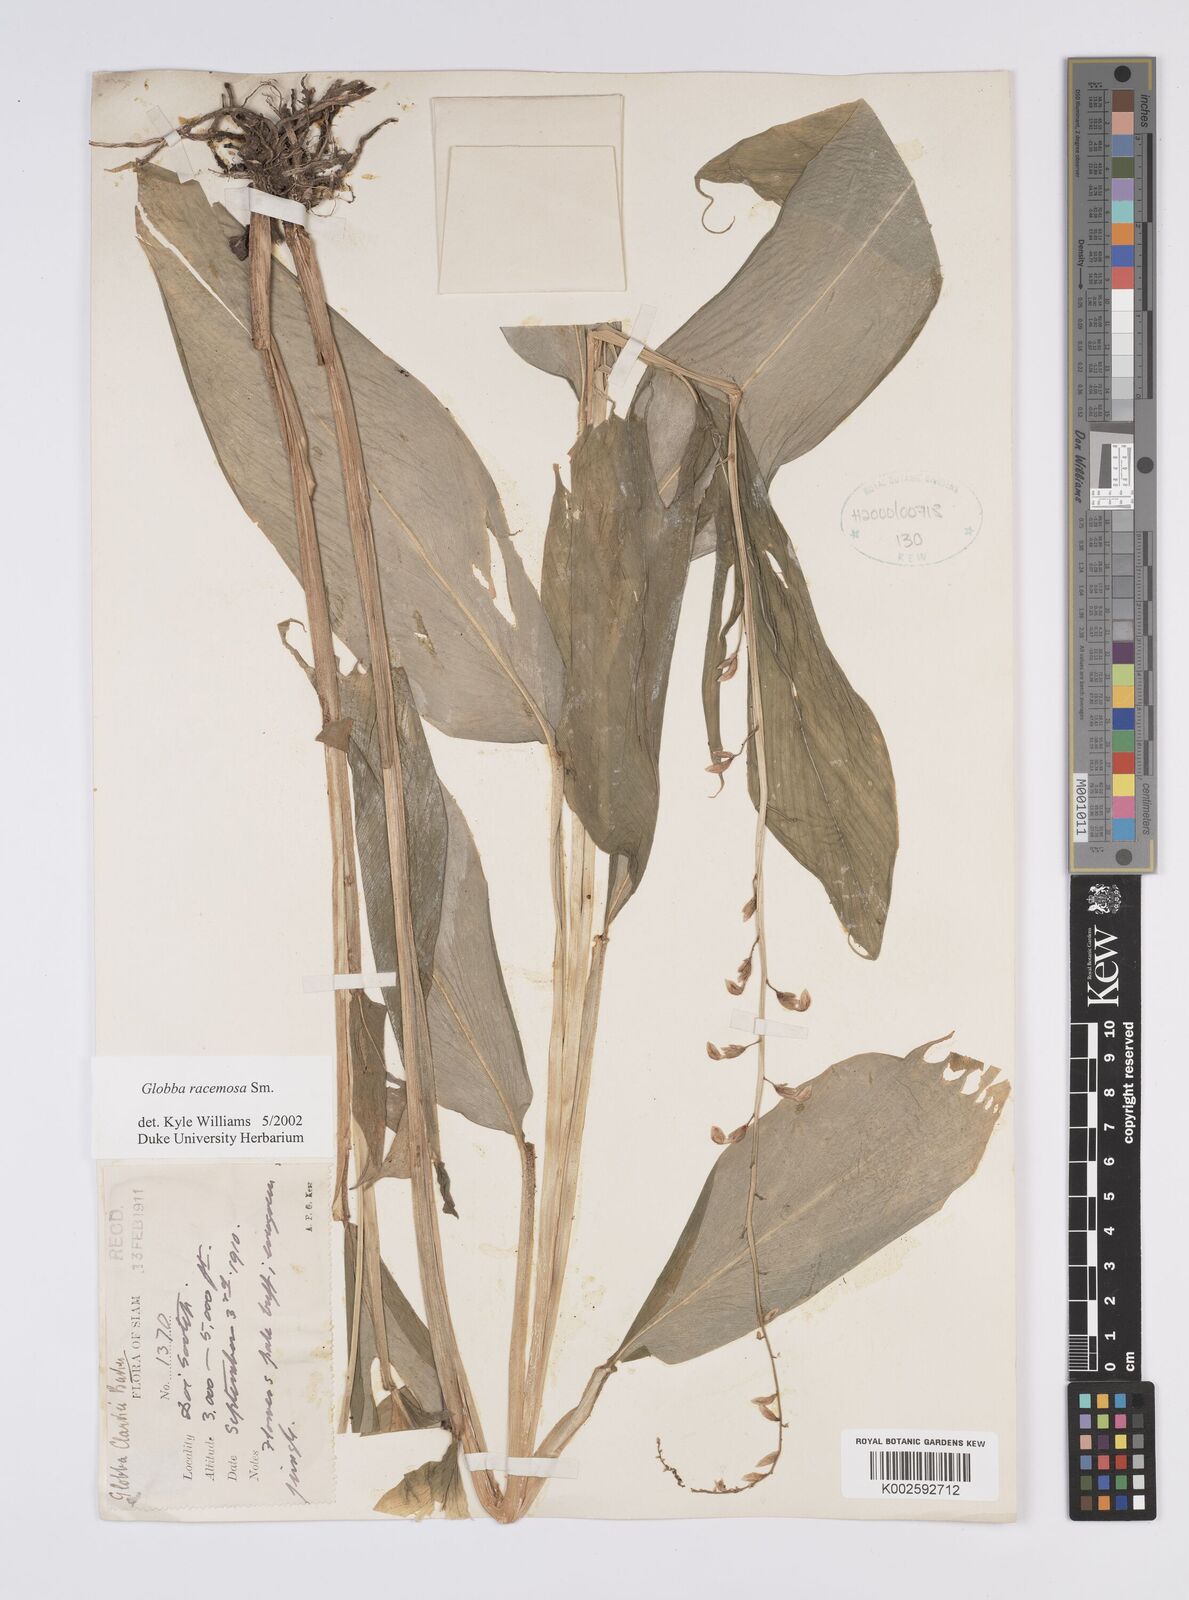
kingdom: Plantae
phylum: Tracheophyta
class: Liliopsida
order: Zingiberales
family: Zingiberaceae
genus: Globba
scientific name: Globba racemosa
